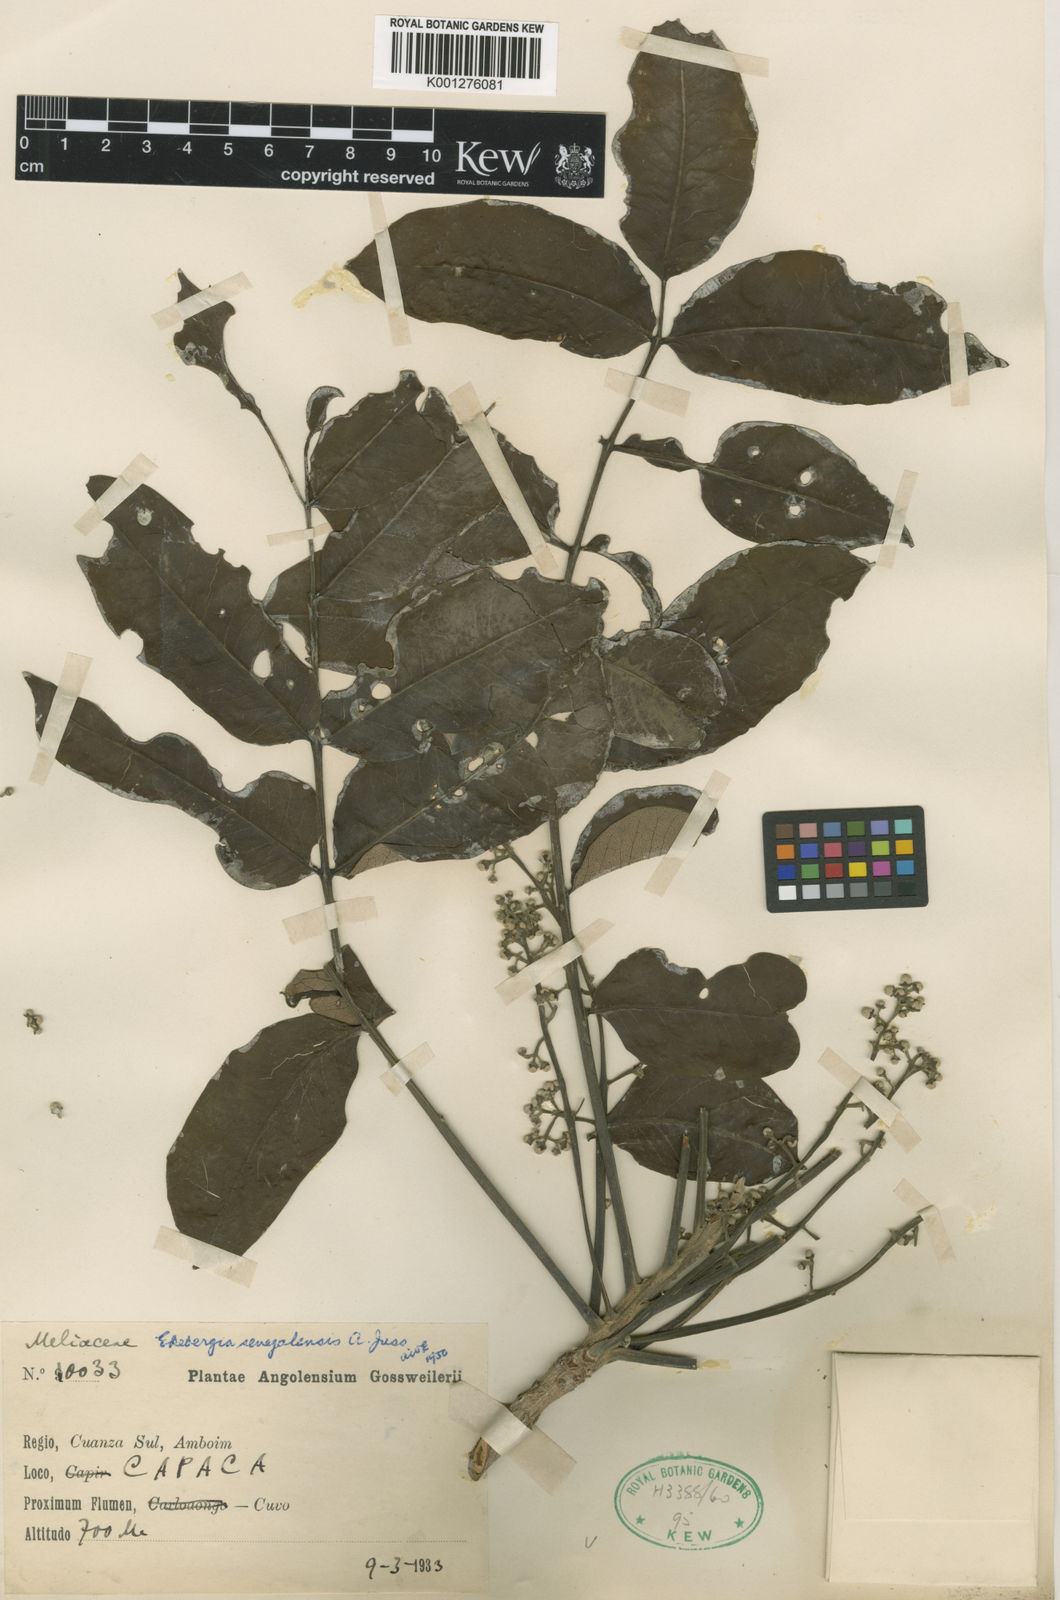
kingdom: Plantae
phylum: Tracheophyta
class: Magnoliopsida
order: Sapindales
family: Meliaceae
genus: Ekebergia
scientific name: Ekebergia
